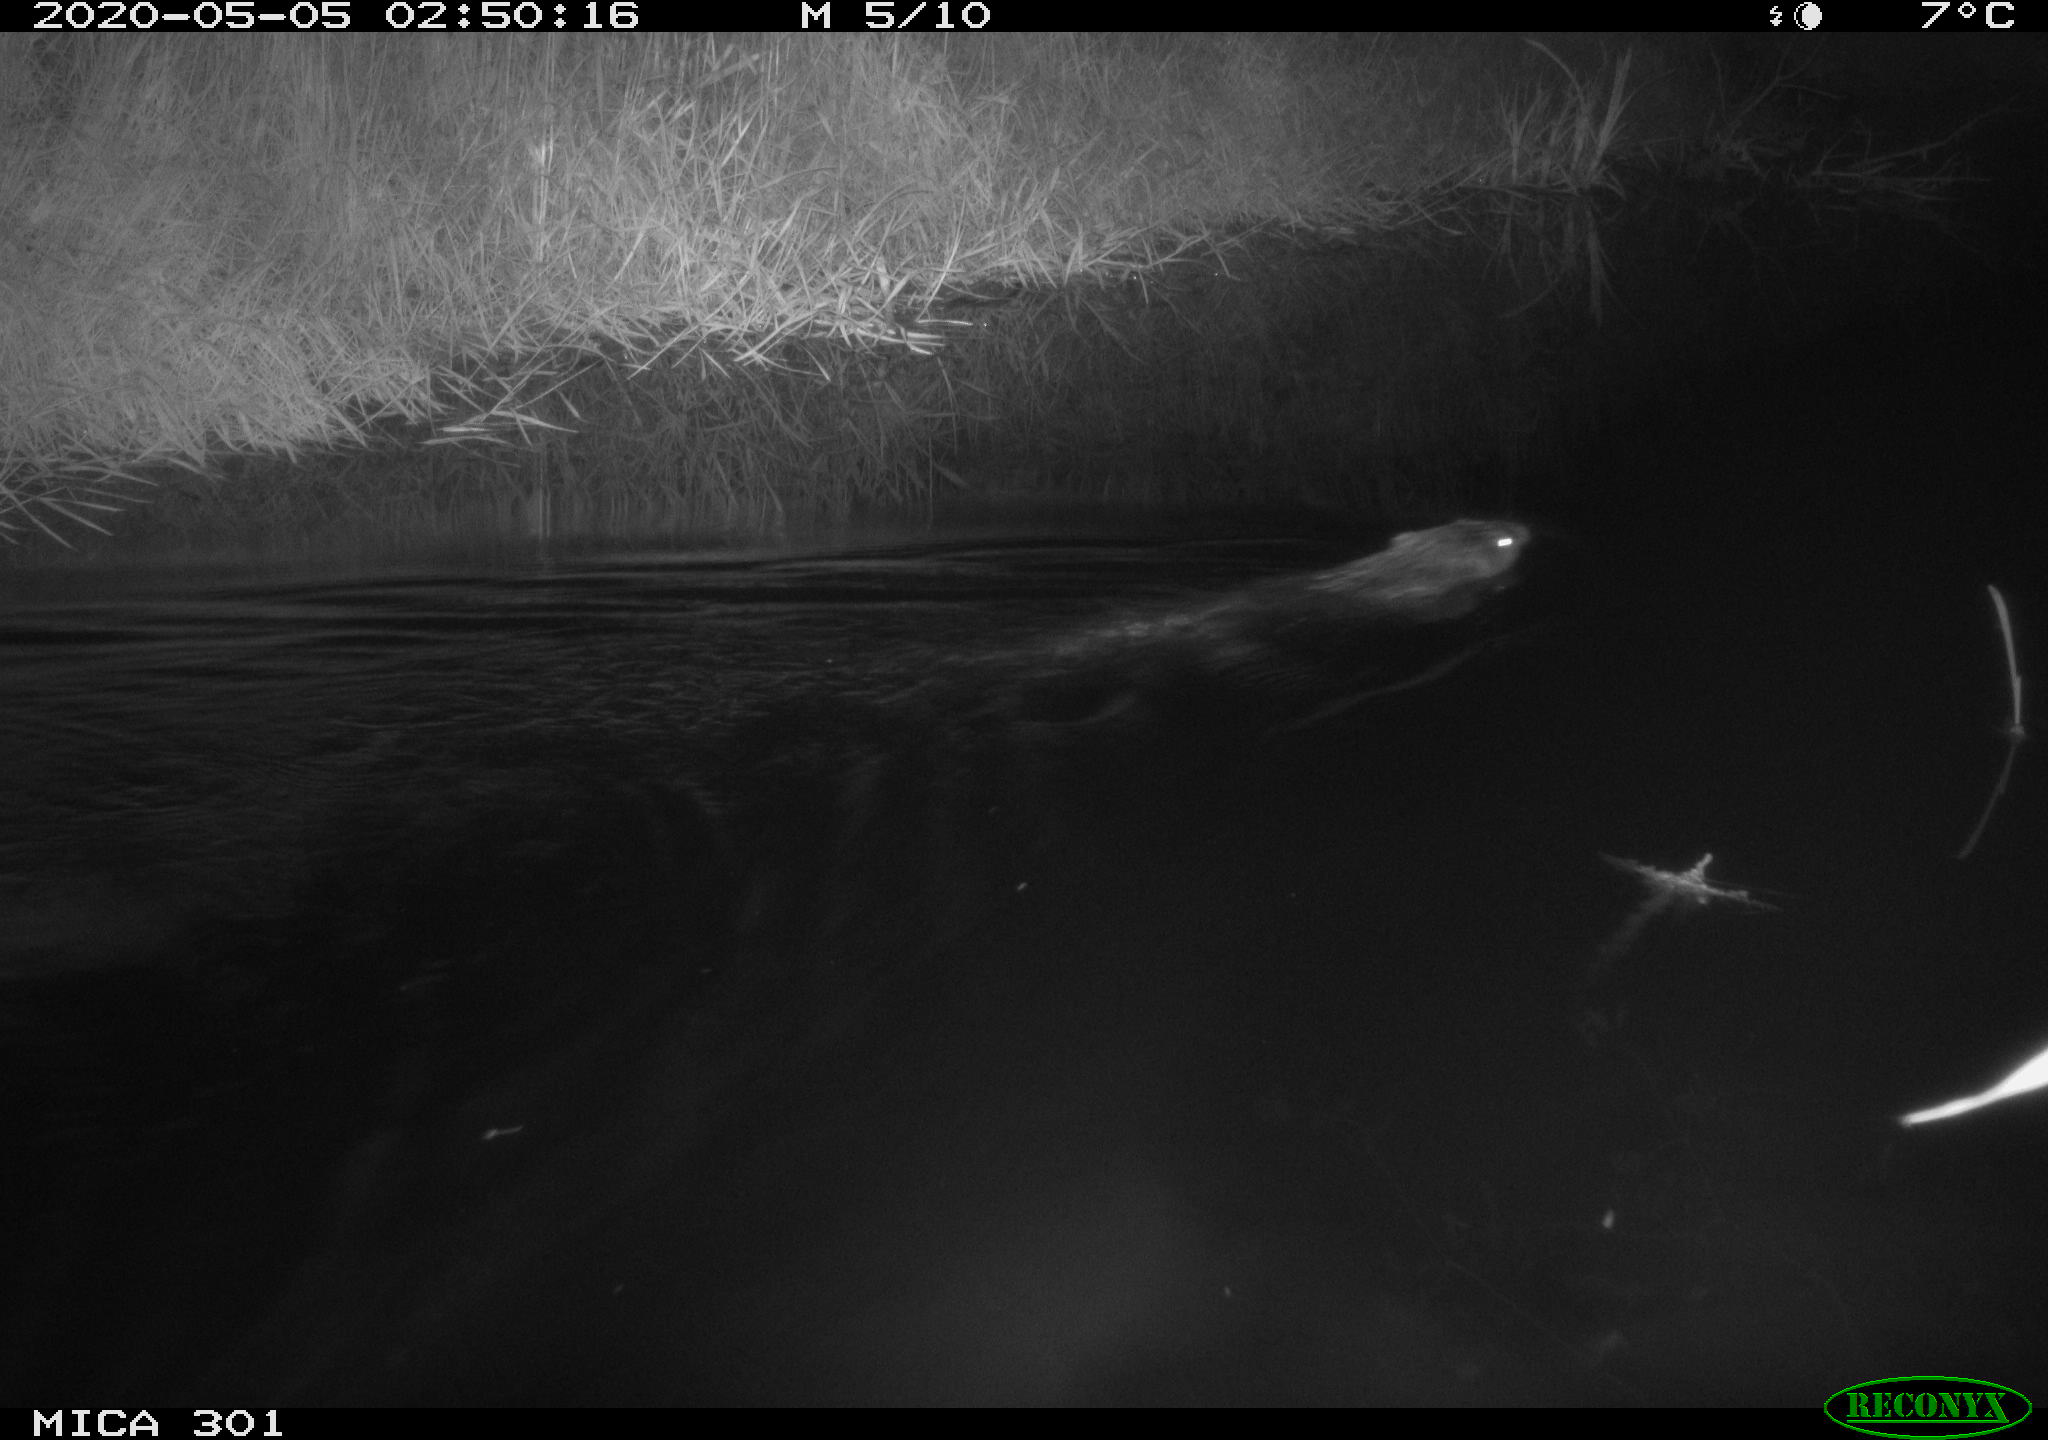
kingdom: Animalia
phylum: Chordata
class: Mammalia
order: Rodentia
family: Castoridae
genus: Castor
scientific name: Castor fiber
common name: Eurasian beaver
